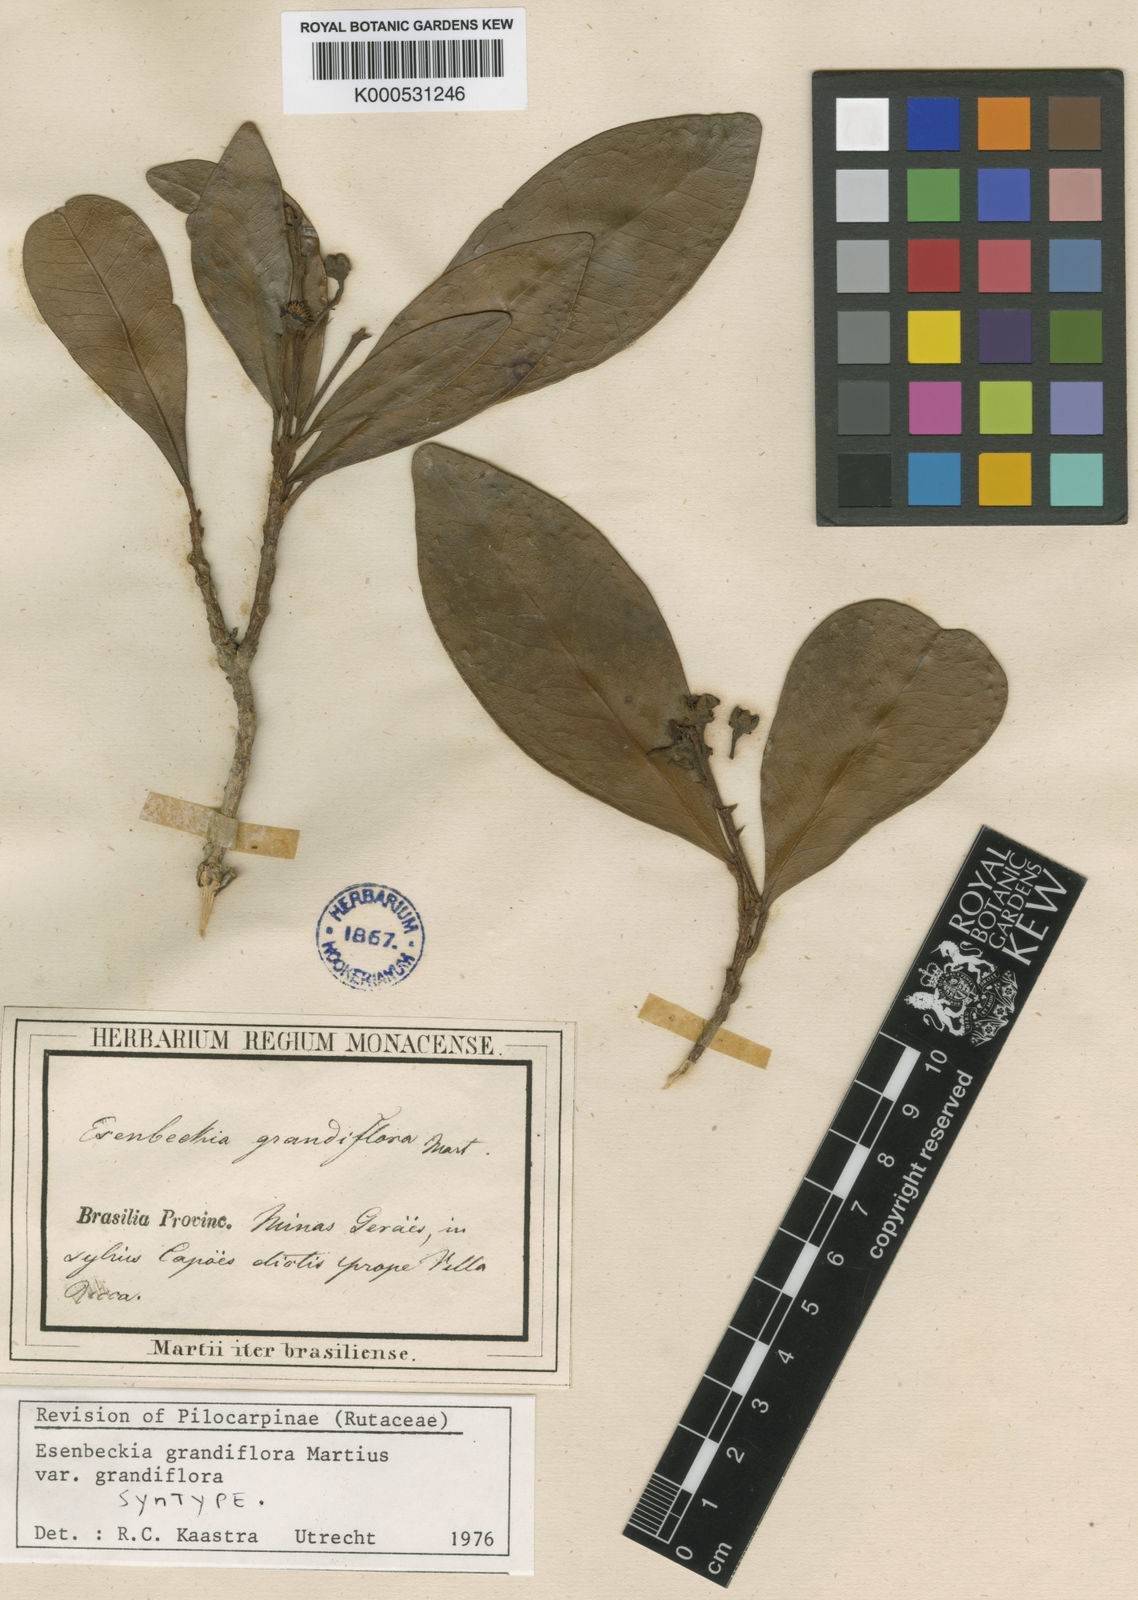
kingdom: Plantae
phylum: Tracheophyta
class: Magnoliopsida
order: Sapindales
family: Rutaceae
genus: Esenbeckia
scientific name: Esenbeckia grandiflora
